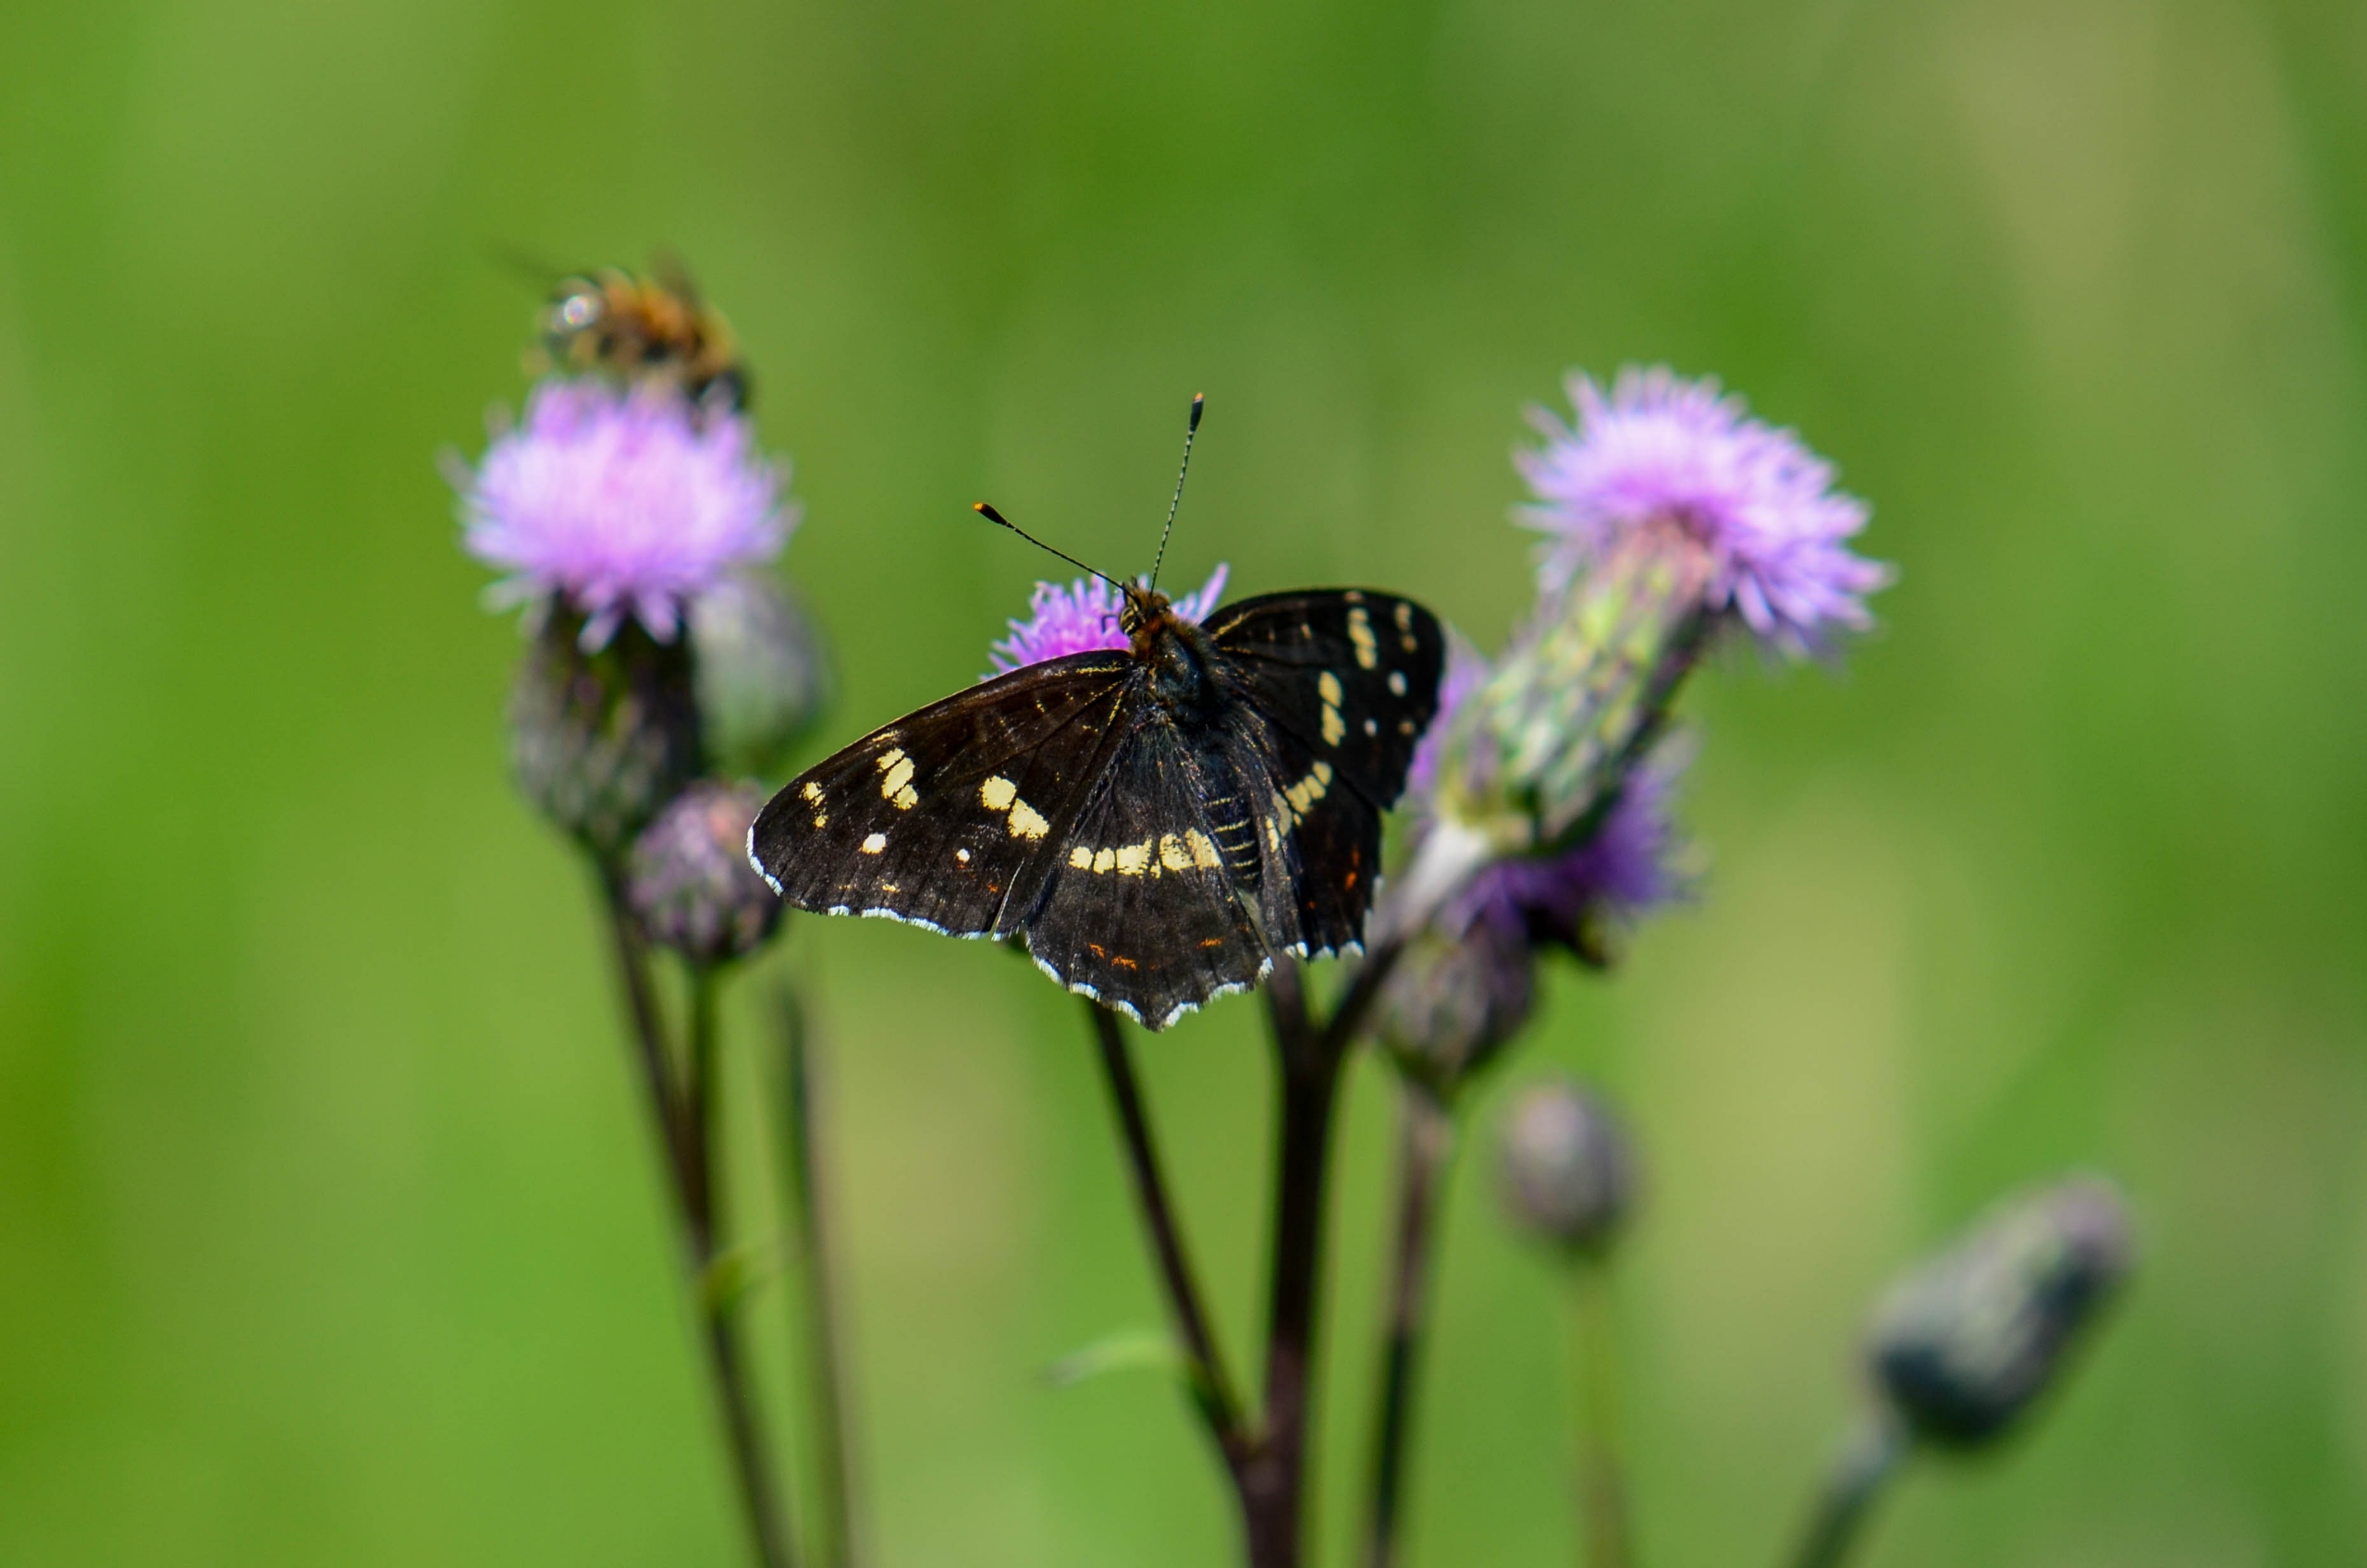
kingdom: Animalia
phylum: Arthropoda
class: Insecta
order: Lepidoptera
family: Nymphalidae
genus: Araschnia
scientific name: Araschnia levana
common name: Nældesommerfugl
